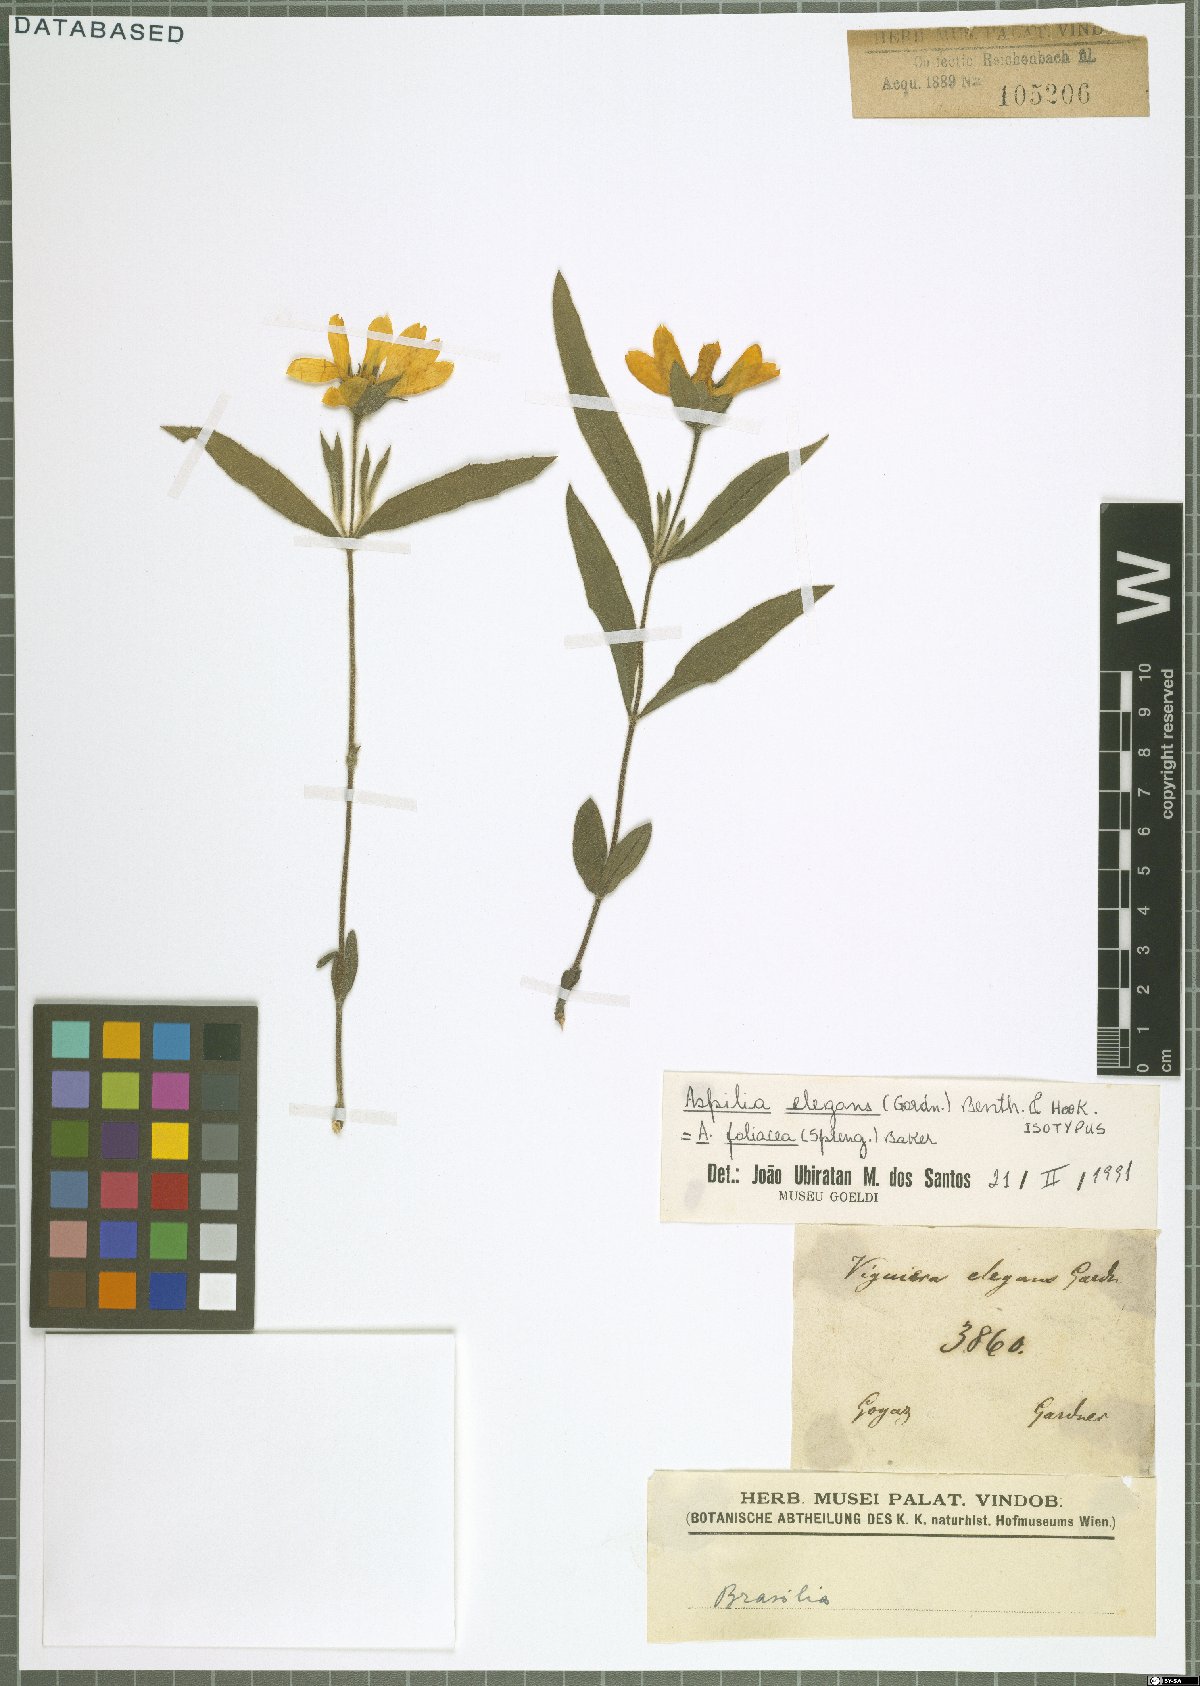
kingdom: Plantae
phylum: Tracheophyta
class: Magnoliopsida
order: Asterales
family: Asteraceae
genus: Wedelia
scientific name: Wedelia foliacea
